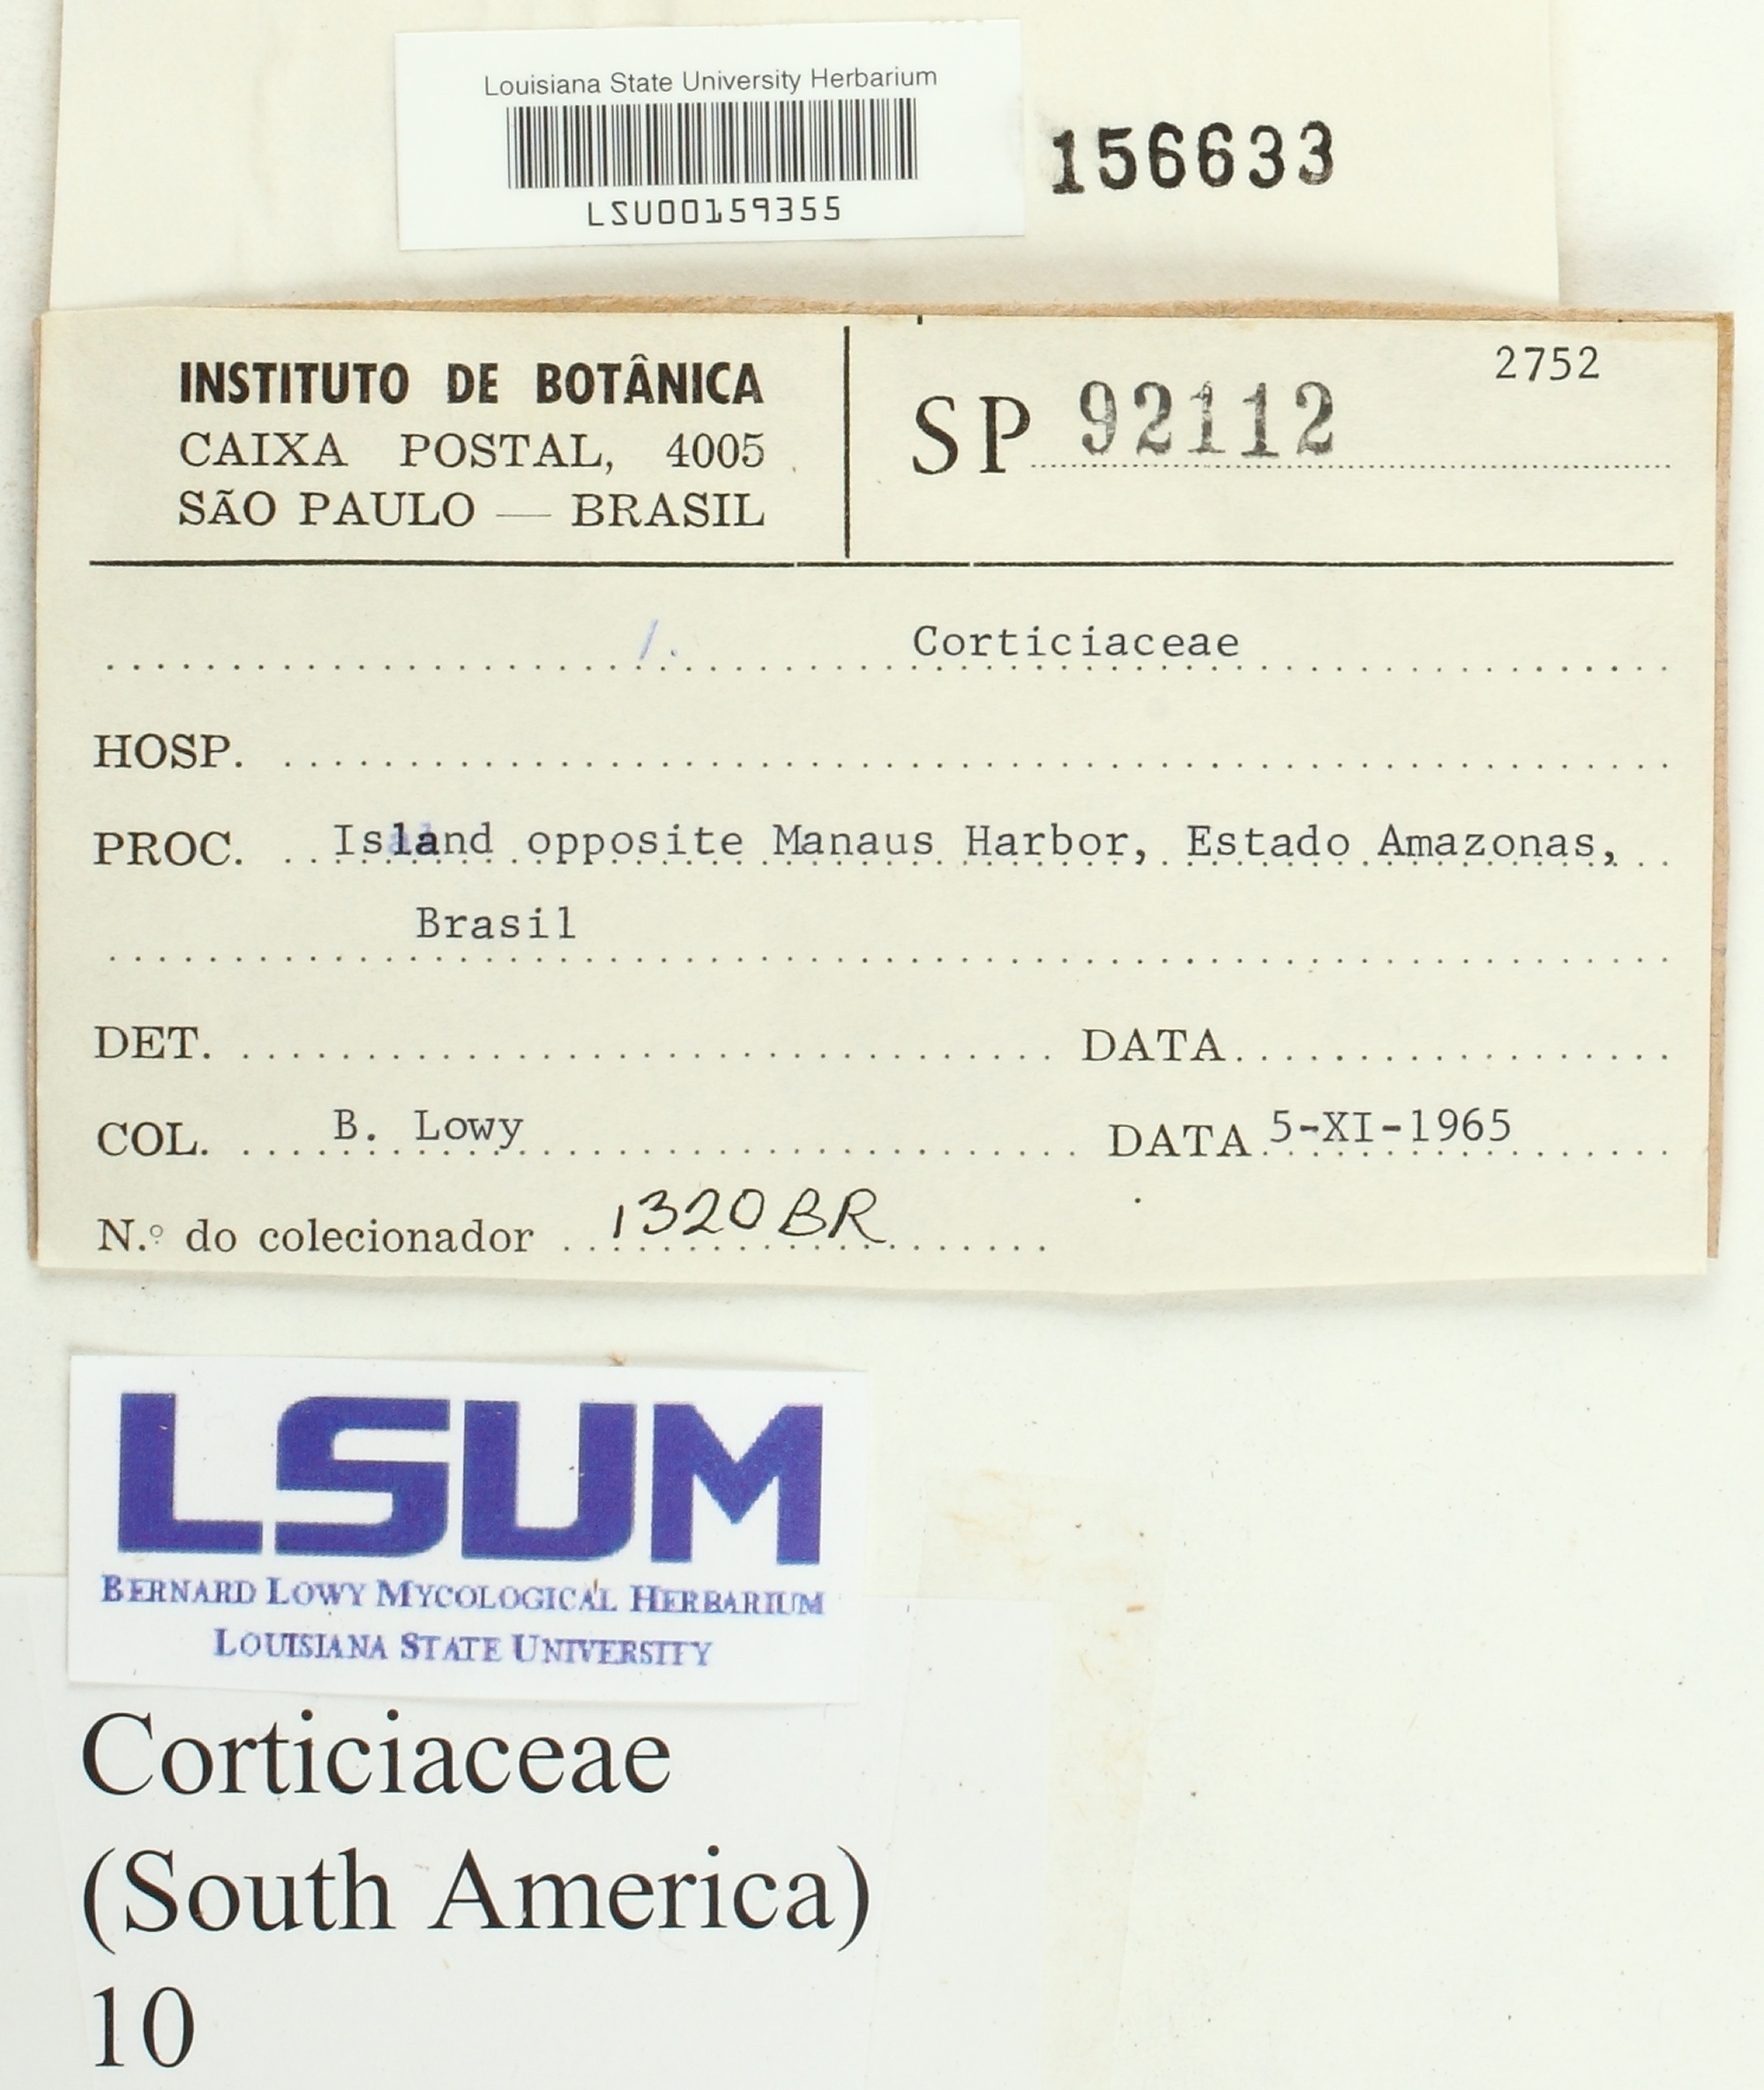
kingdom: Fungi
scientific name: Fungi
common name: Fungi
